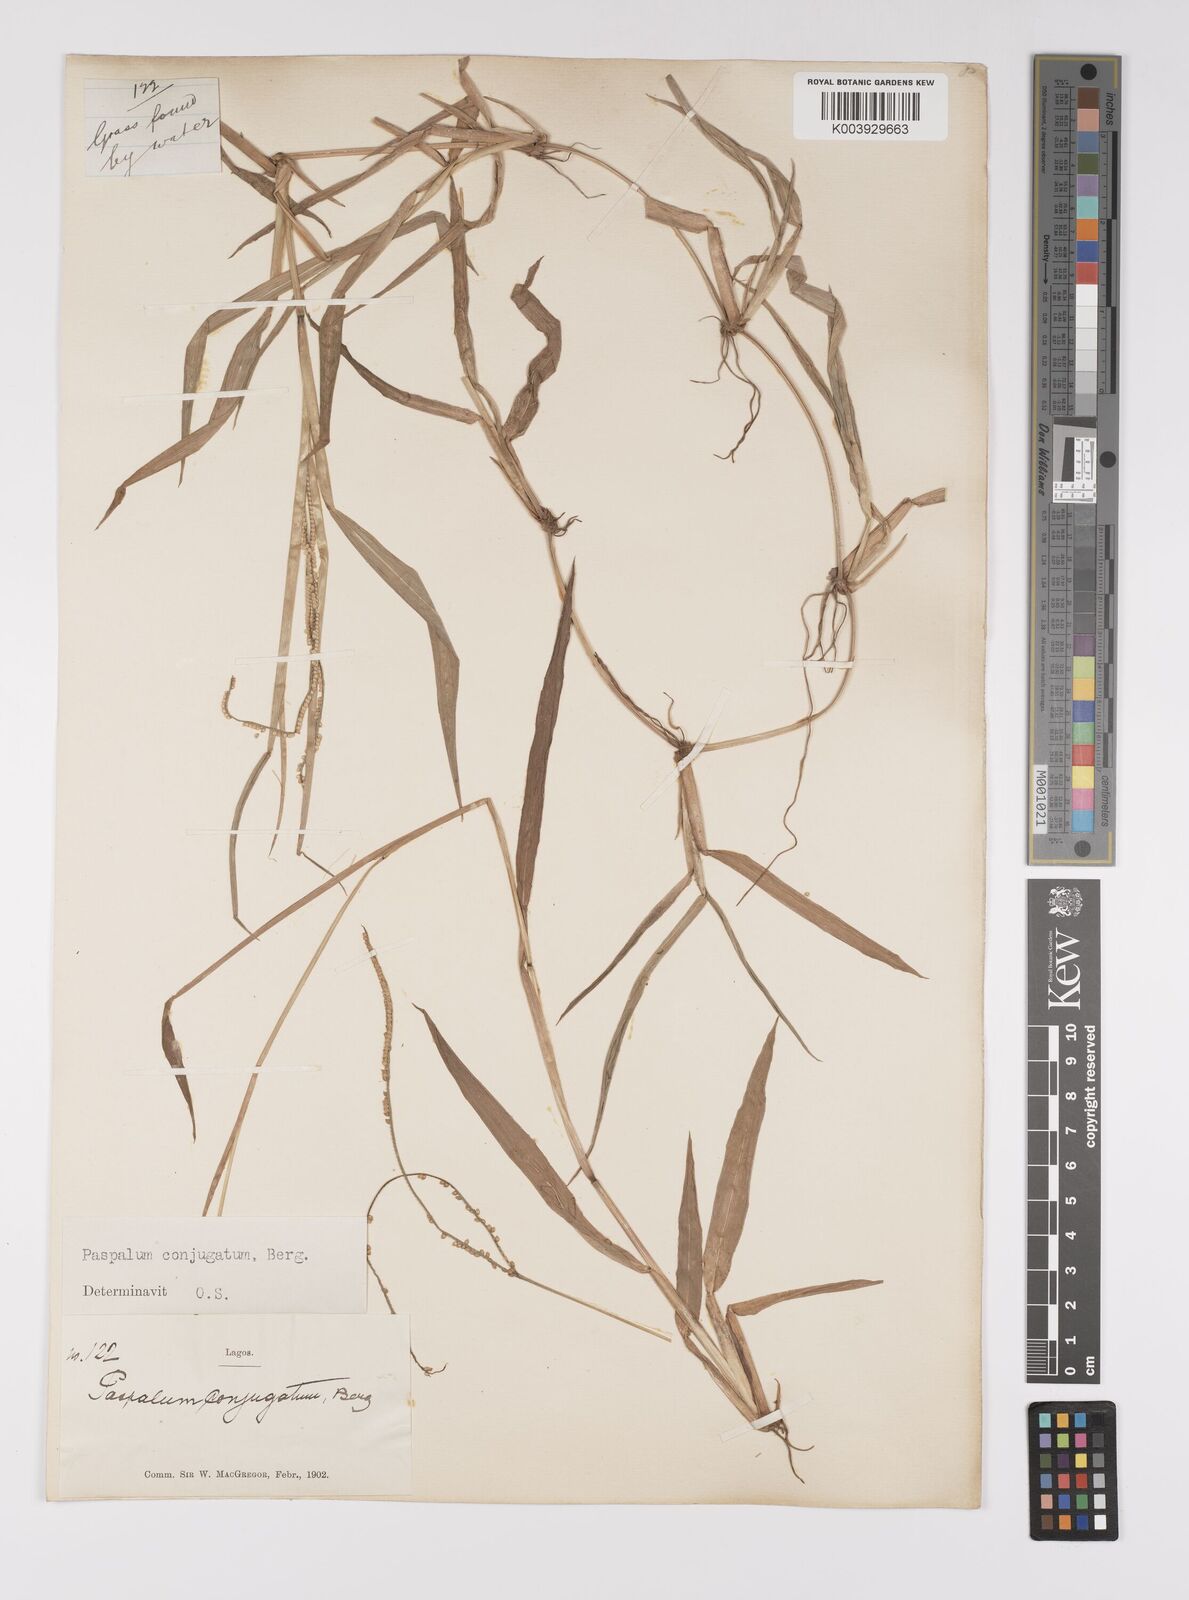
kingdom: Plantae
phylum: Tracheophyta
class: Liliopsida
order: Poales
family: Poaceae
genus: Paspalum
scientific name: Paspalum conjugatum
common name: Hilograss
